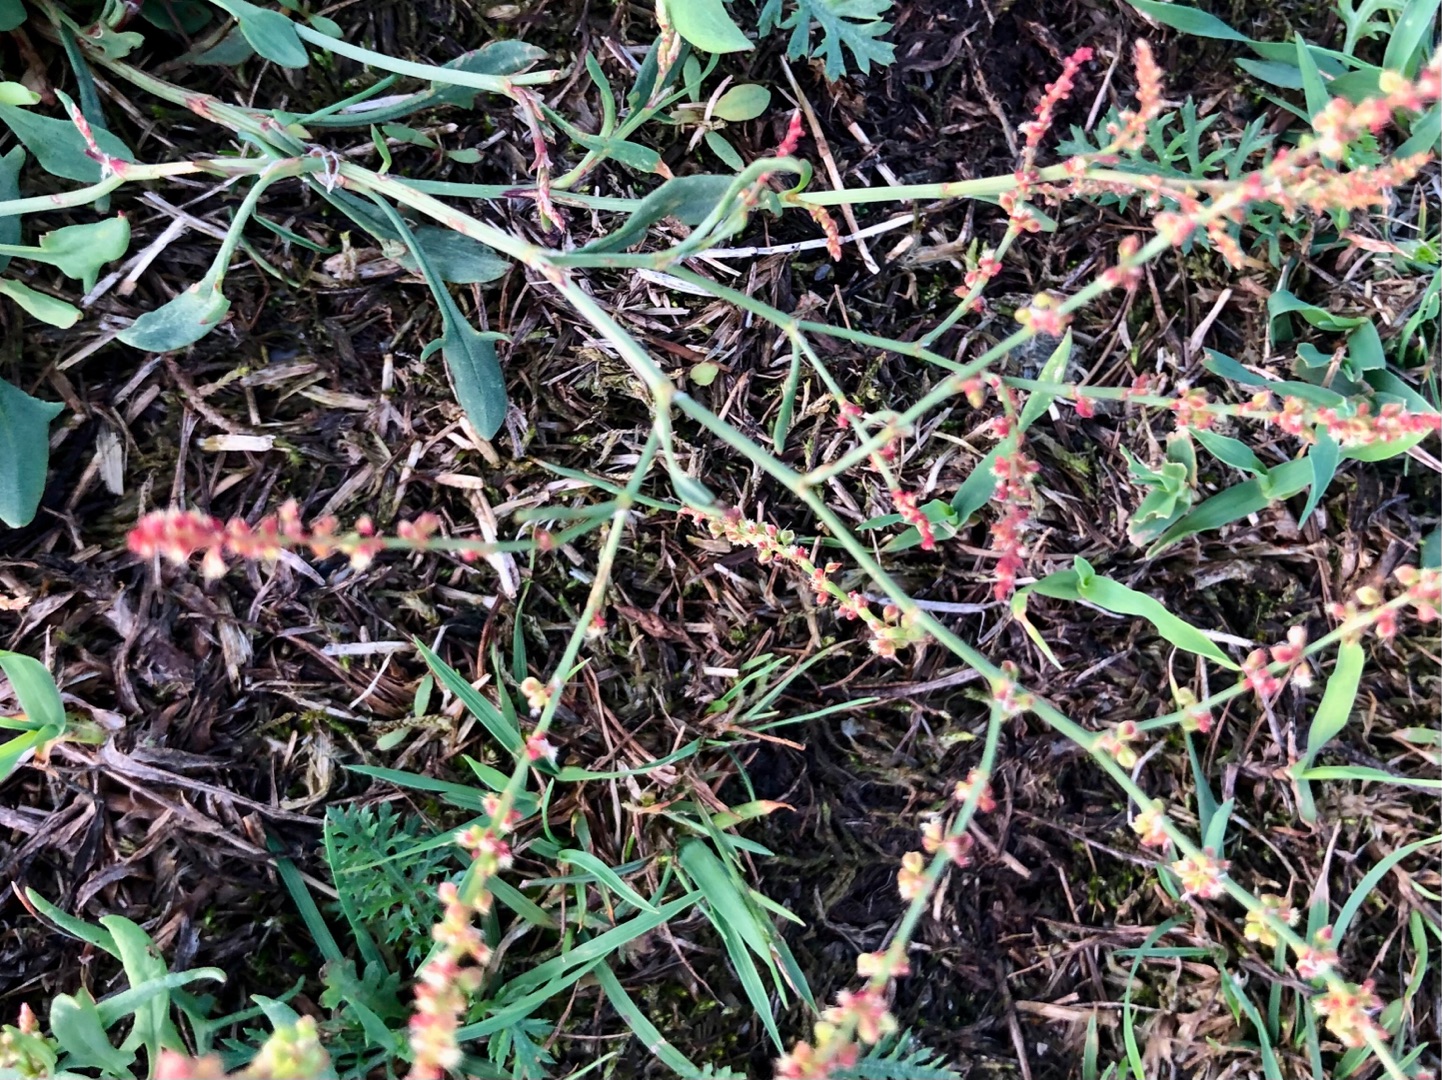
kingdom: Plantae
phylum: Tracheophyta
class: Magnoliopsida
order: Caryophyllales
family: Polygonaceae
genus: Rumex
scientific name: Rumex acetosella
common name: Rødknæ
